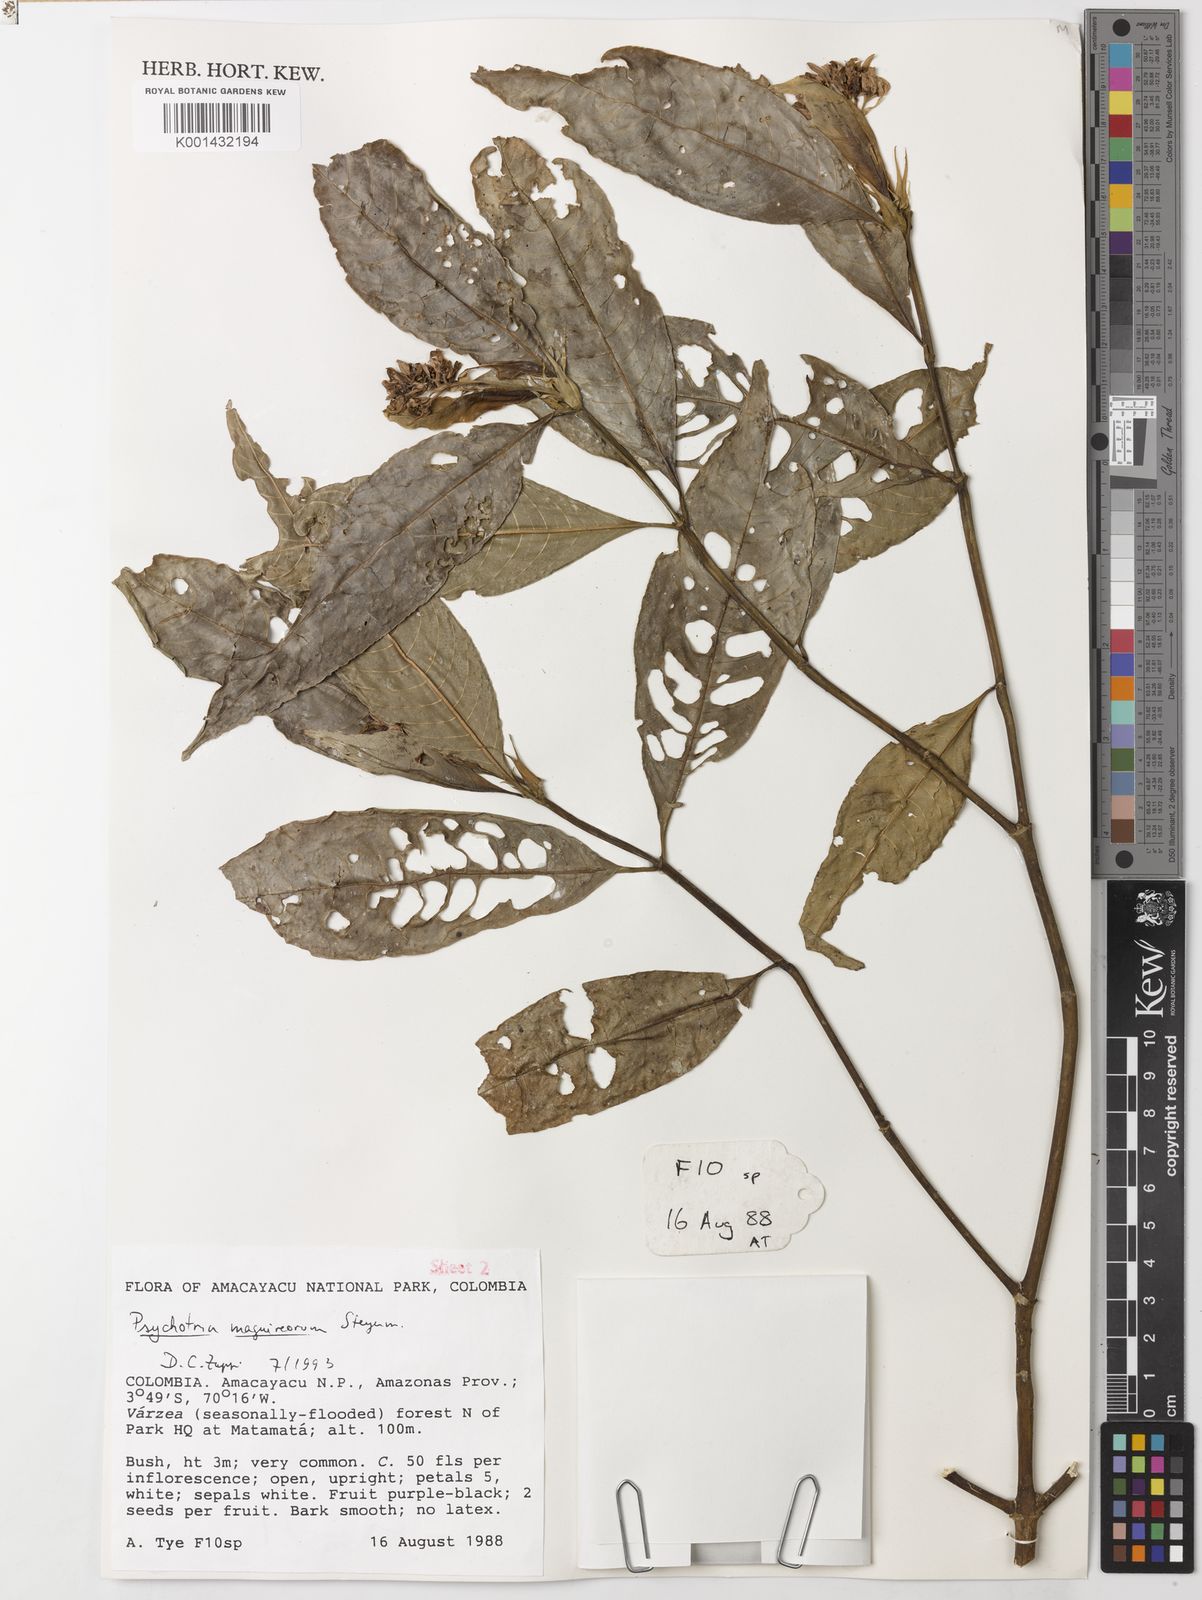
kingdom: Plantae
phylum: Tracheophyta
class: Magnoliopsida
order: Gentianales
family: Rubiaceae
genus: Palicourea
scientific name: Palicourea maguireorum
